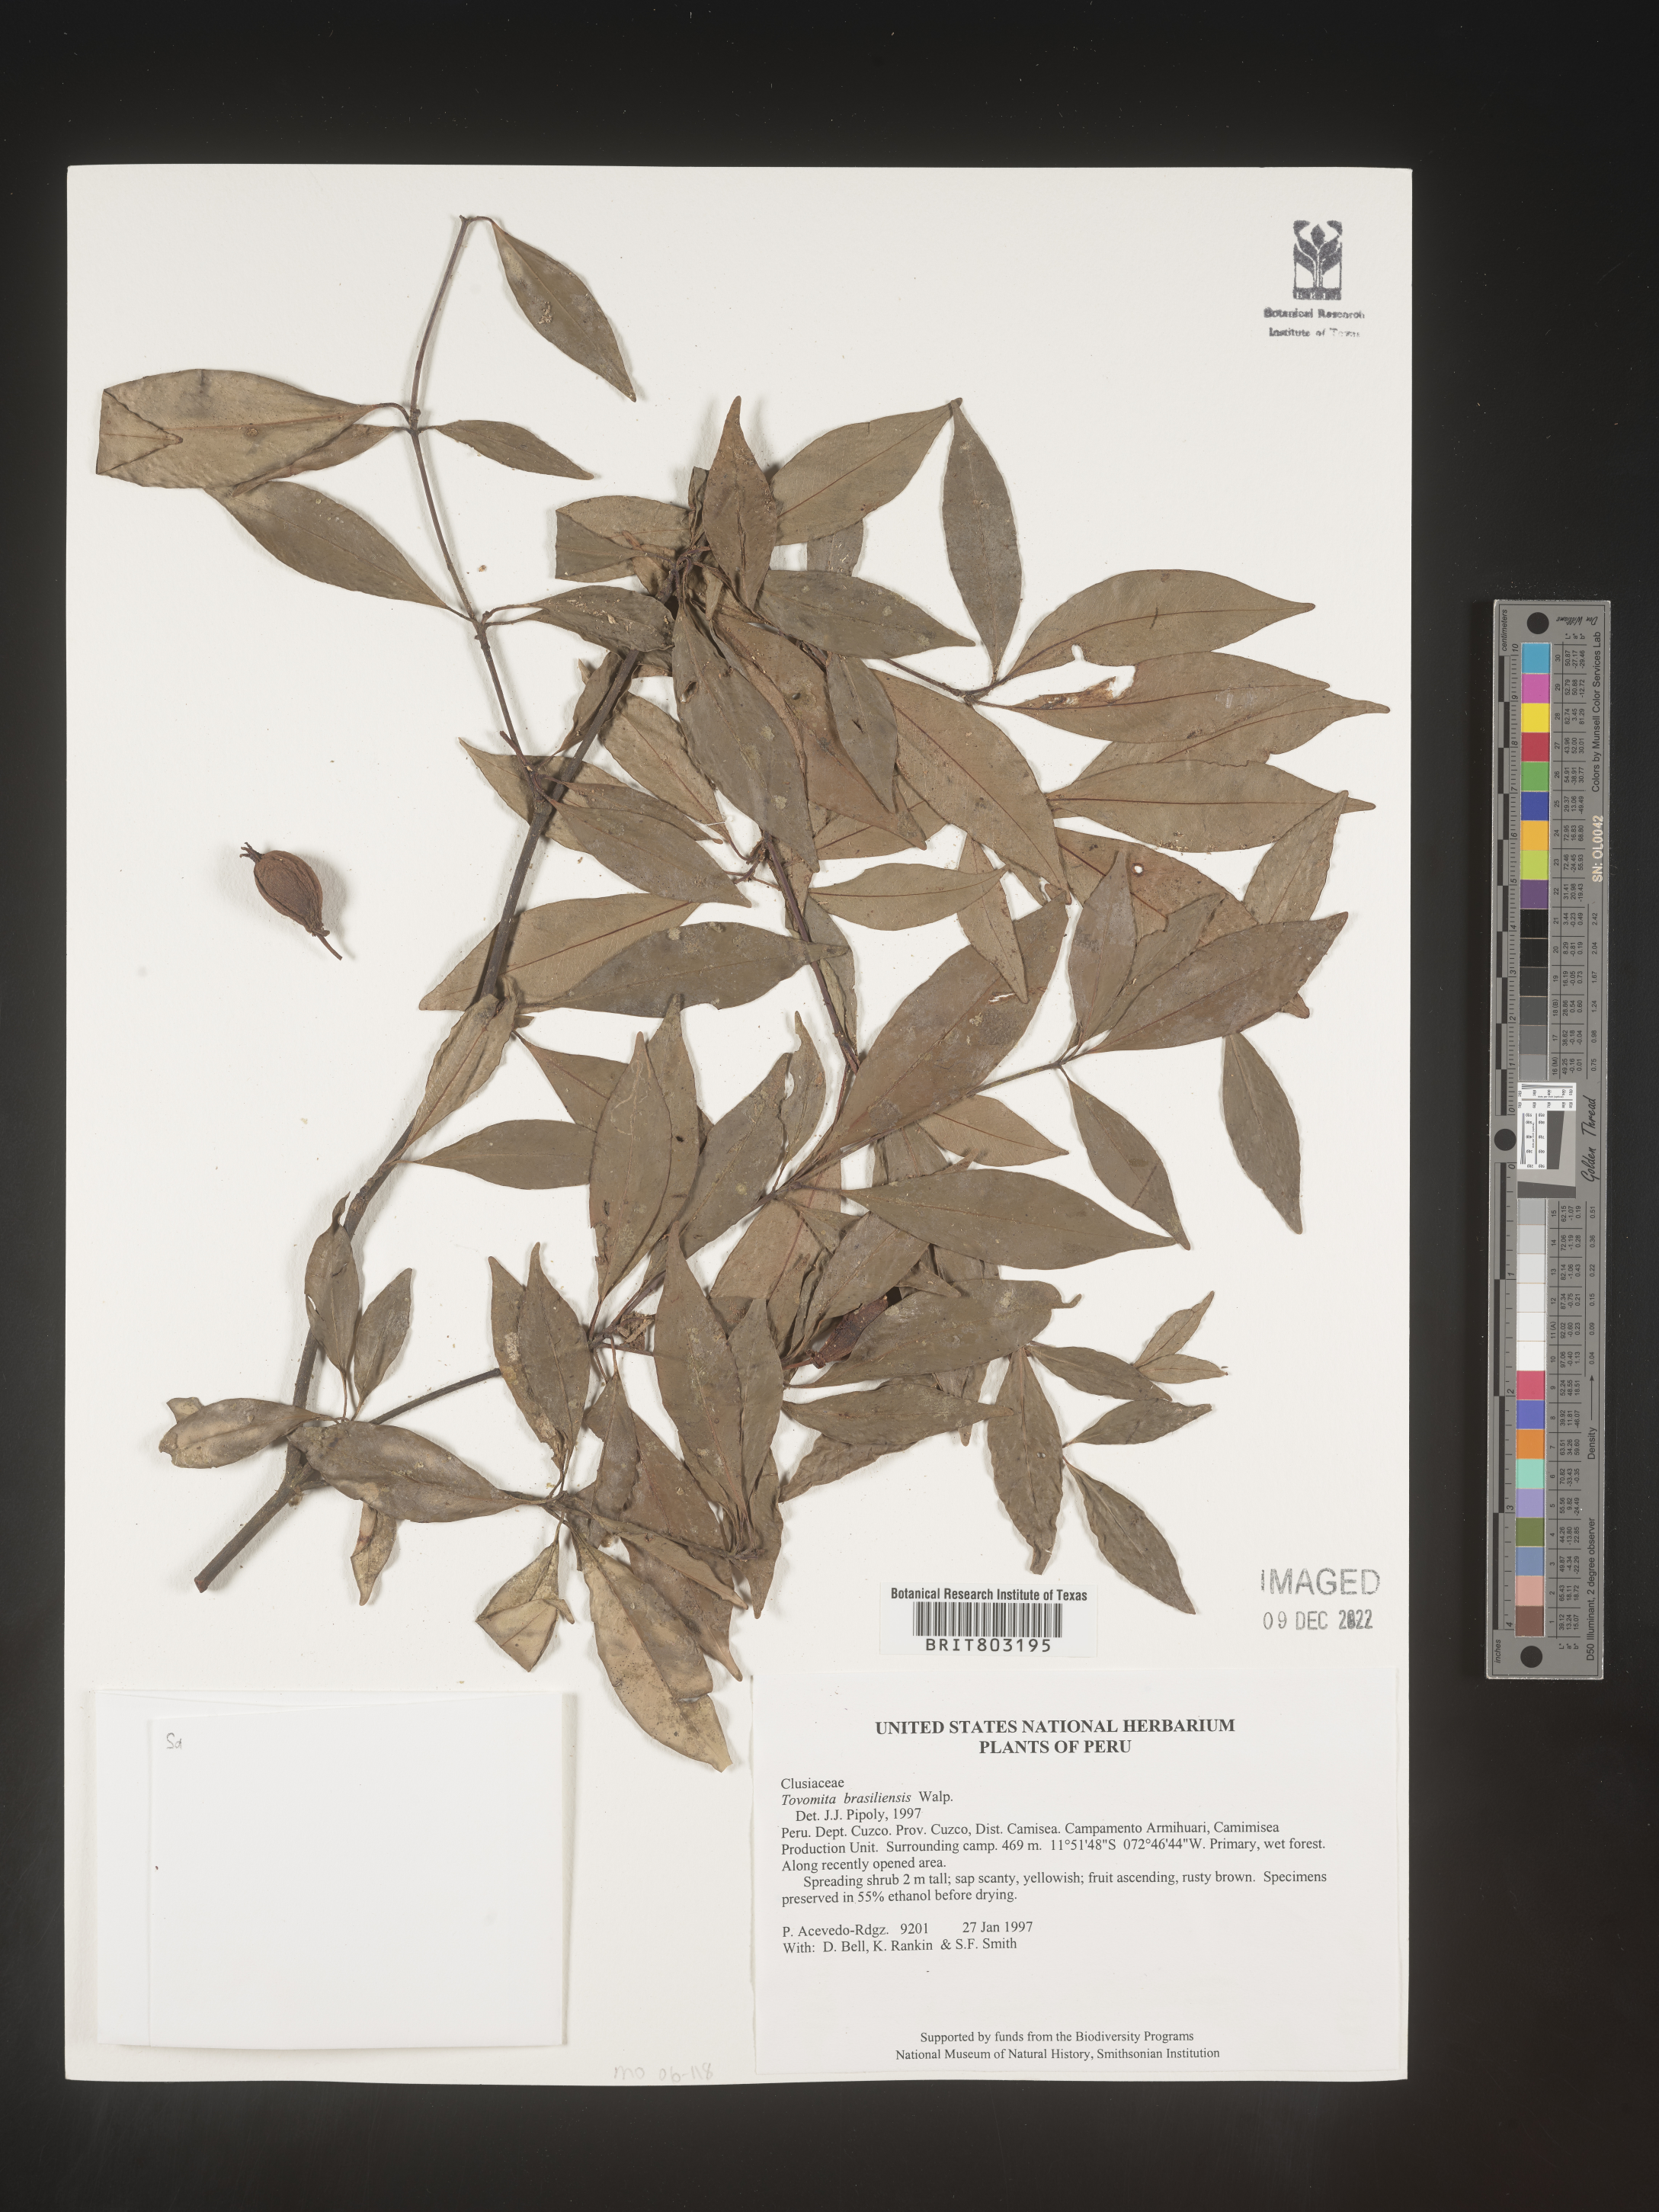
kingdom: Plantae
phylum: Tracheophyta
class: Magnoliopsida
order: Malpighiales
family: Clusiaceae
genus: Tovomita
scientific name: Tovomita
